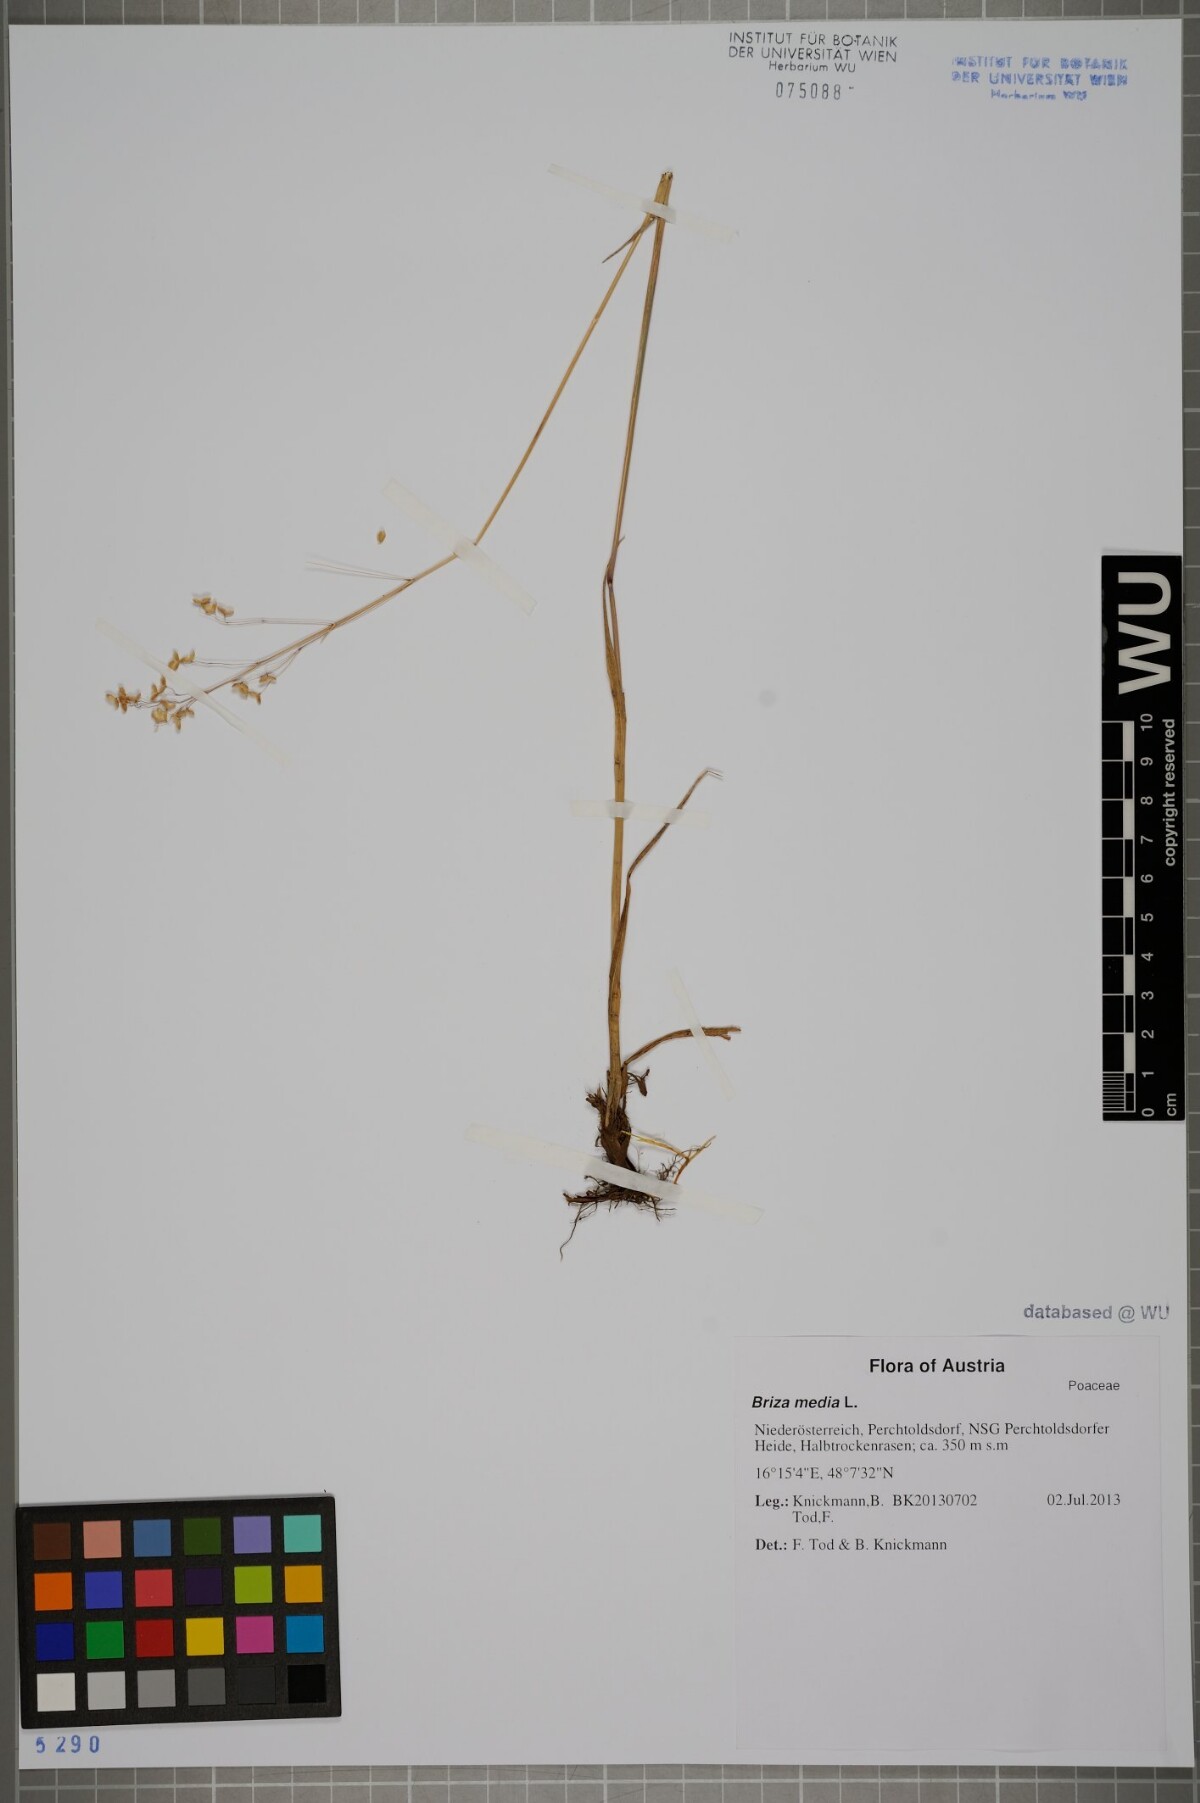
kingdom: Plantae
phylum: Tracheophyta
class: Liliopsida
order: Poales
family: Poaceae
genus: Briza
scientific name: Briza media
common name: Quaking grass
